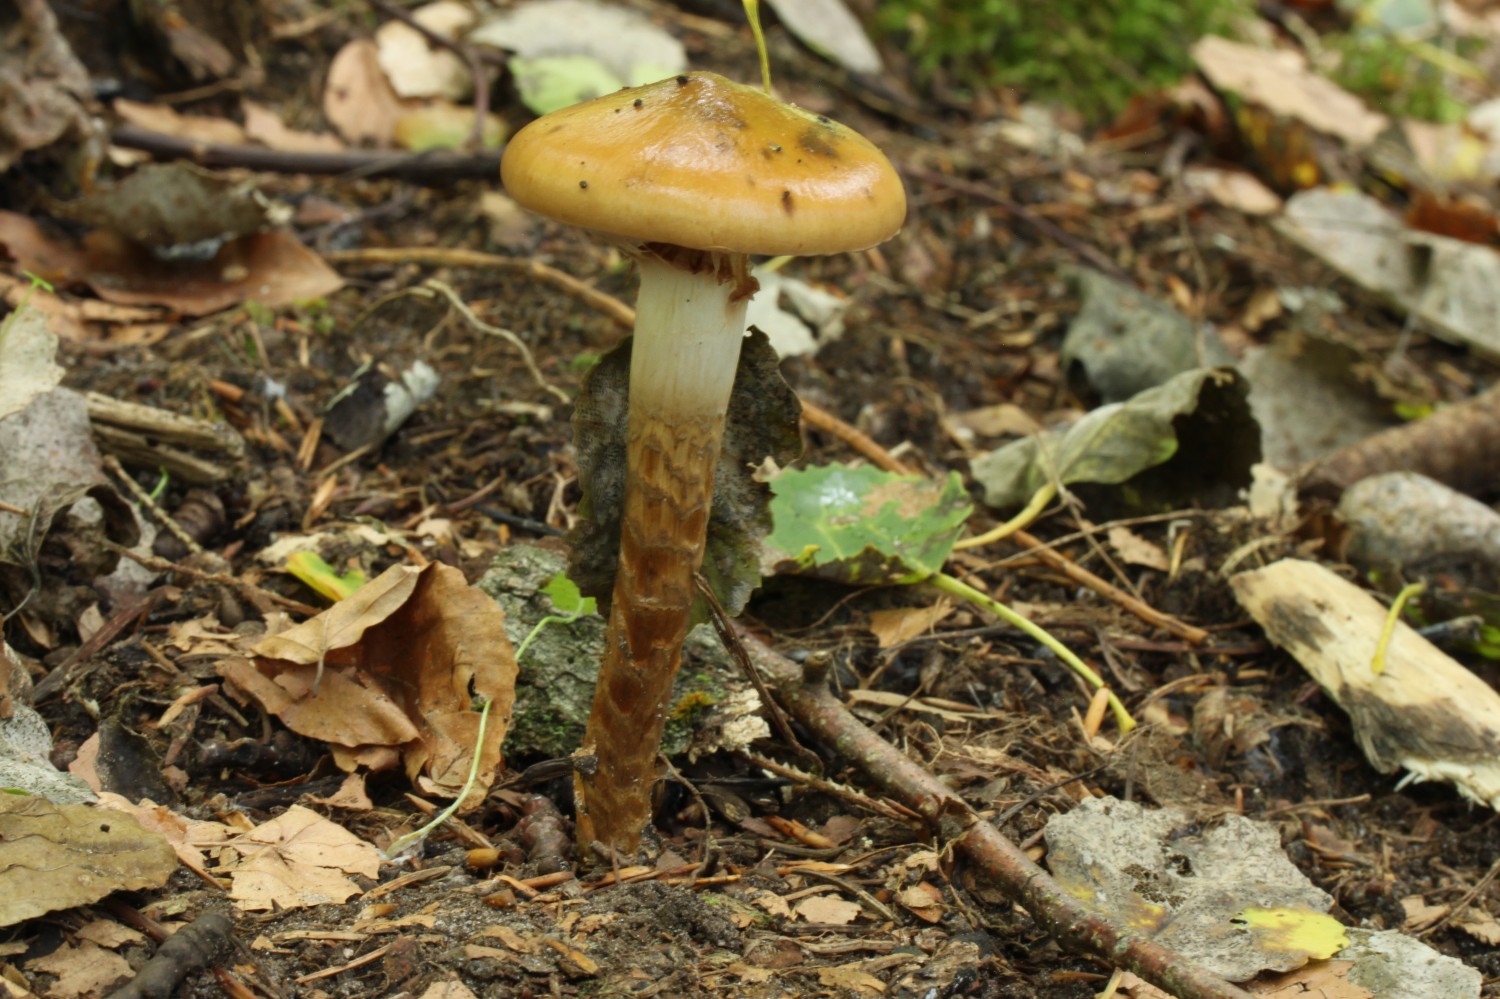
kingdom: Fungi
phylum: Basidiomycota
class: Agaricomycetes
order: Agaricales
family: Cortinariaceae
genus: Cortinarius
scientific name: Cortinarius trivialis
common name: brunslimet slørhat
